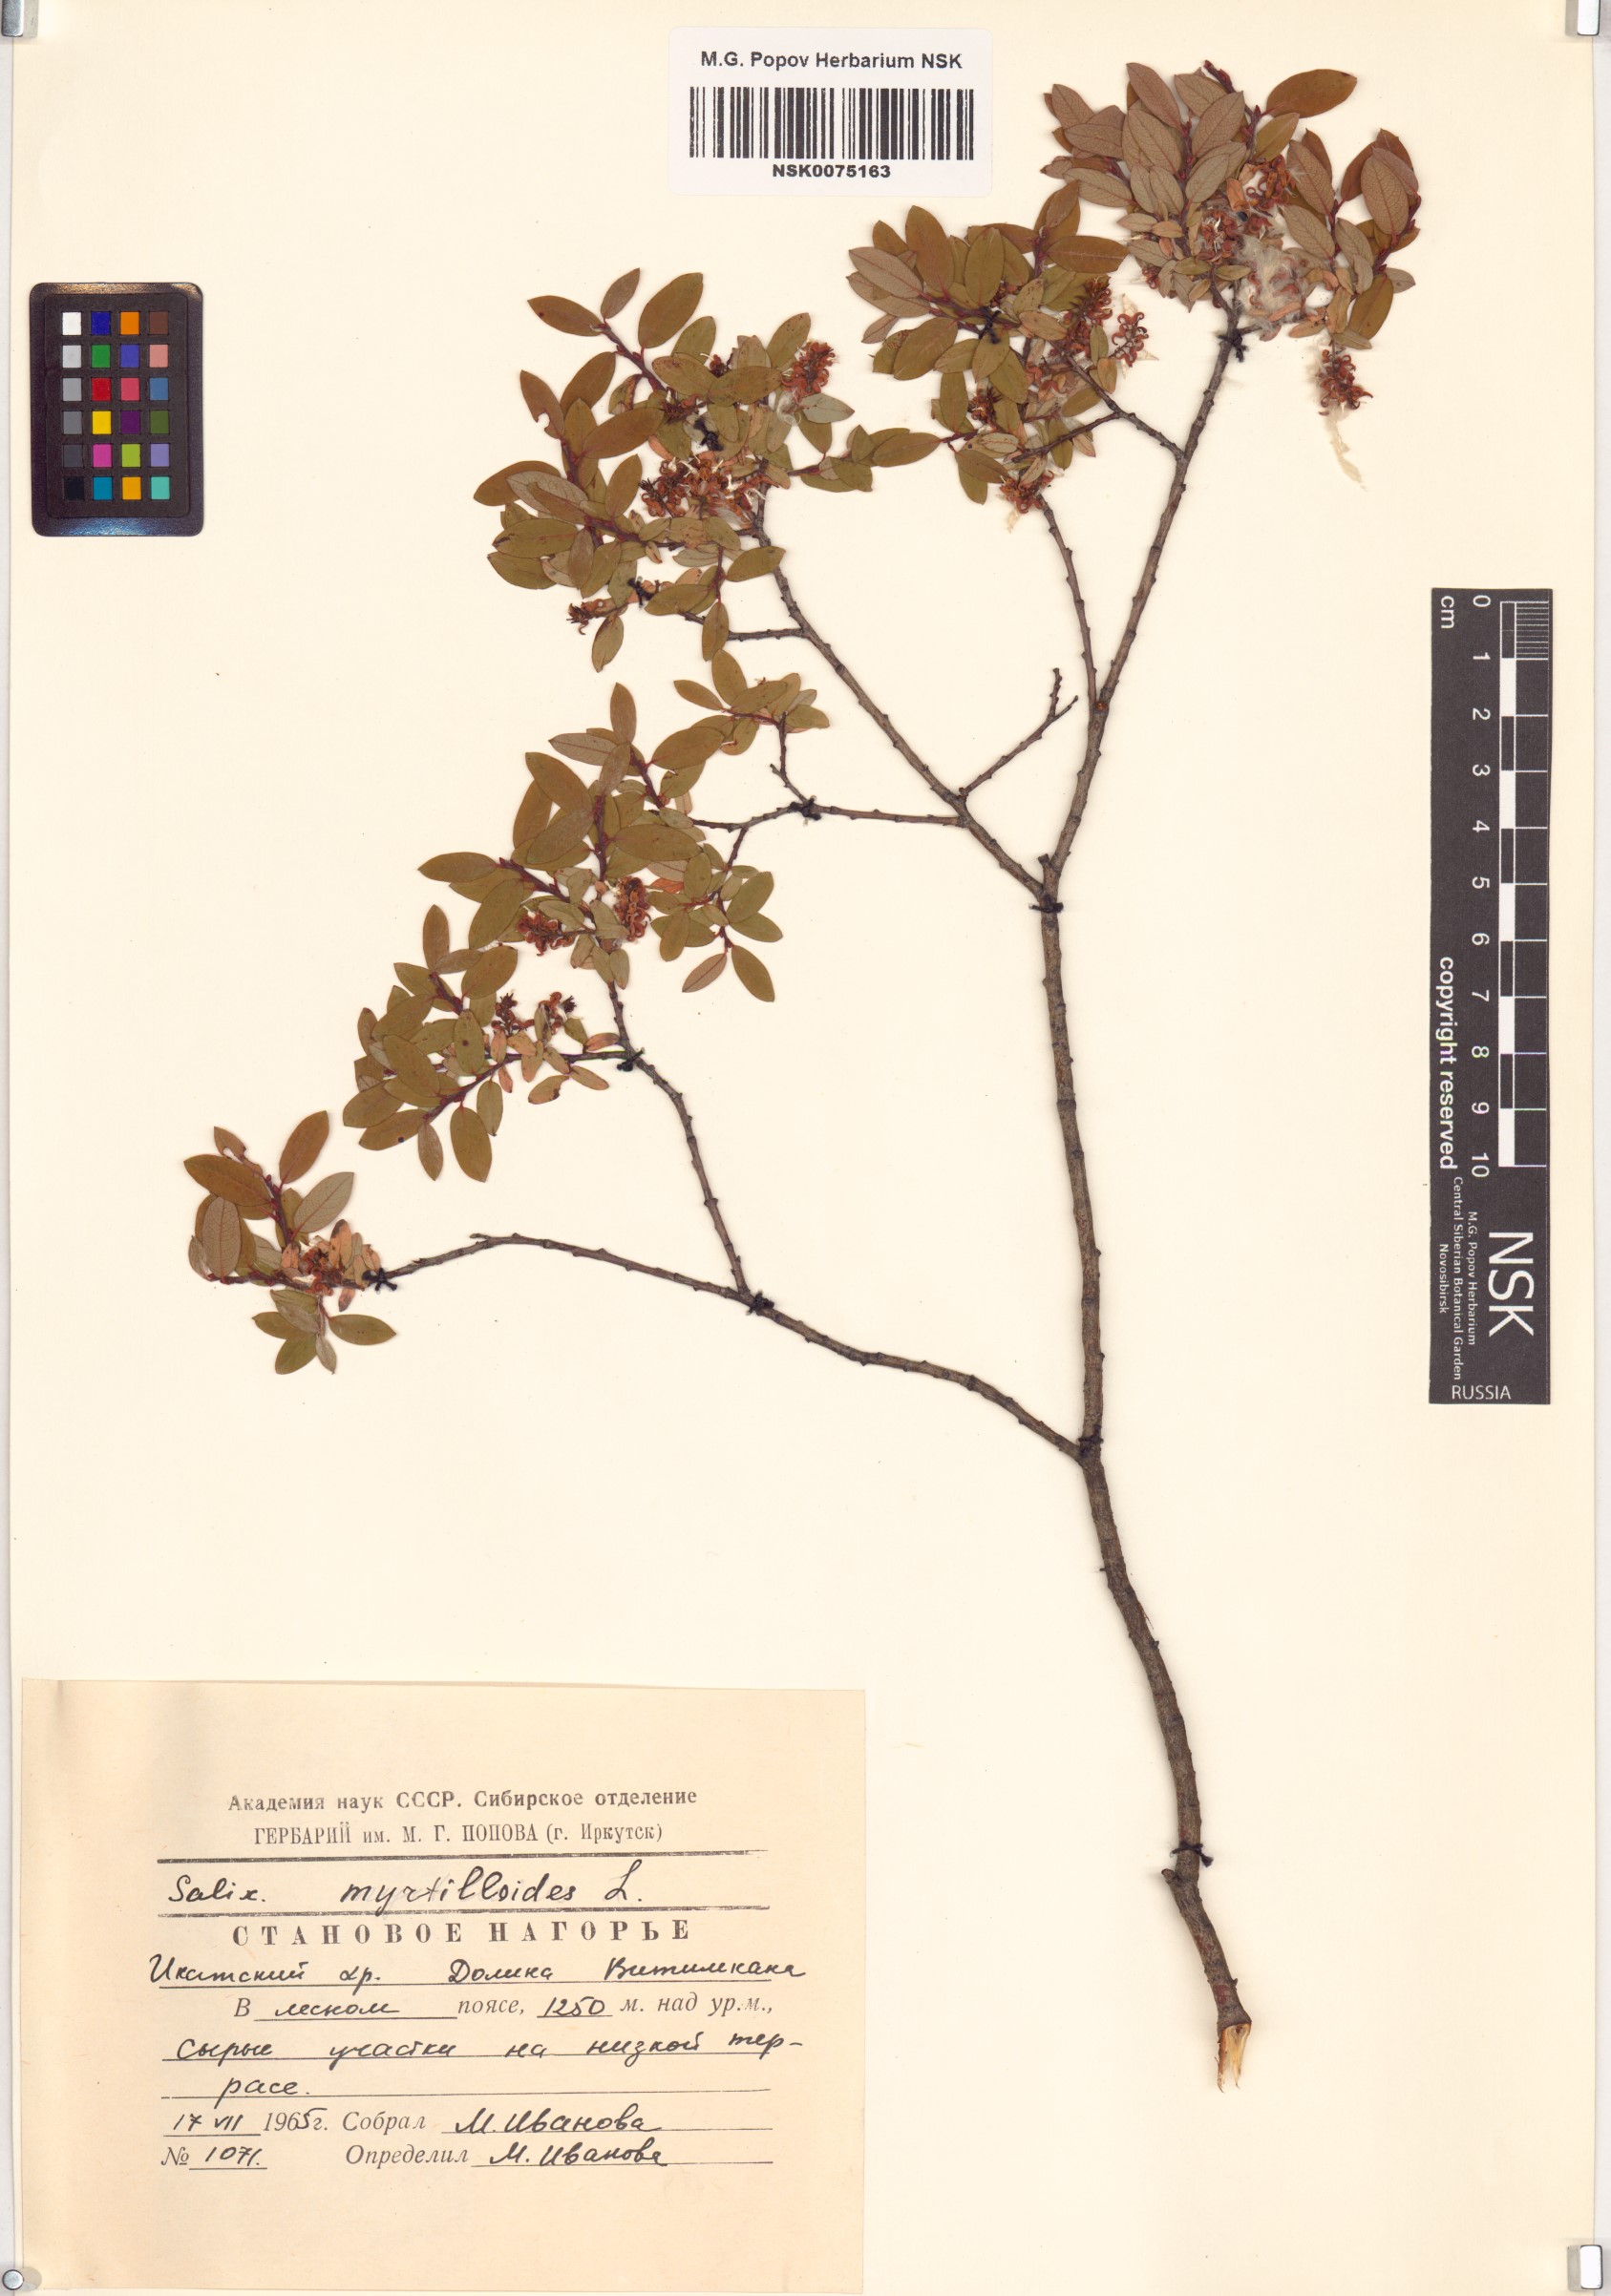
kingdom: Plantae
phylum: Tracheophyta
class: Magnoliopsida
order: Malpighiales
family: Salicaceae
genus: Salix
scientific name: Salix myrtilloides
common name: Myrtle-leaved willow
